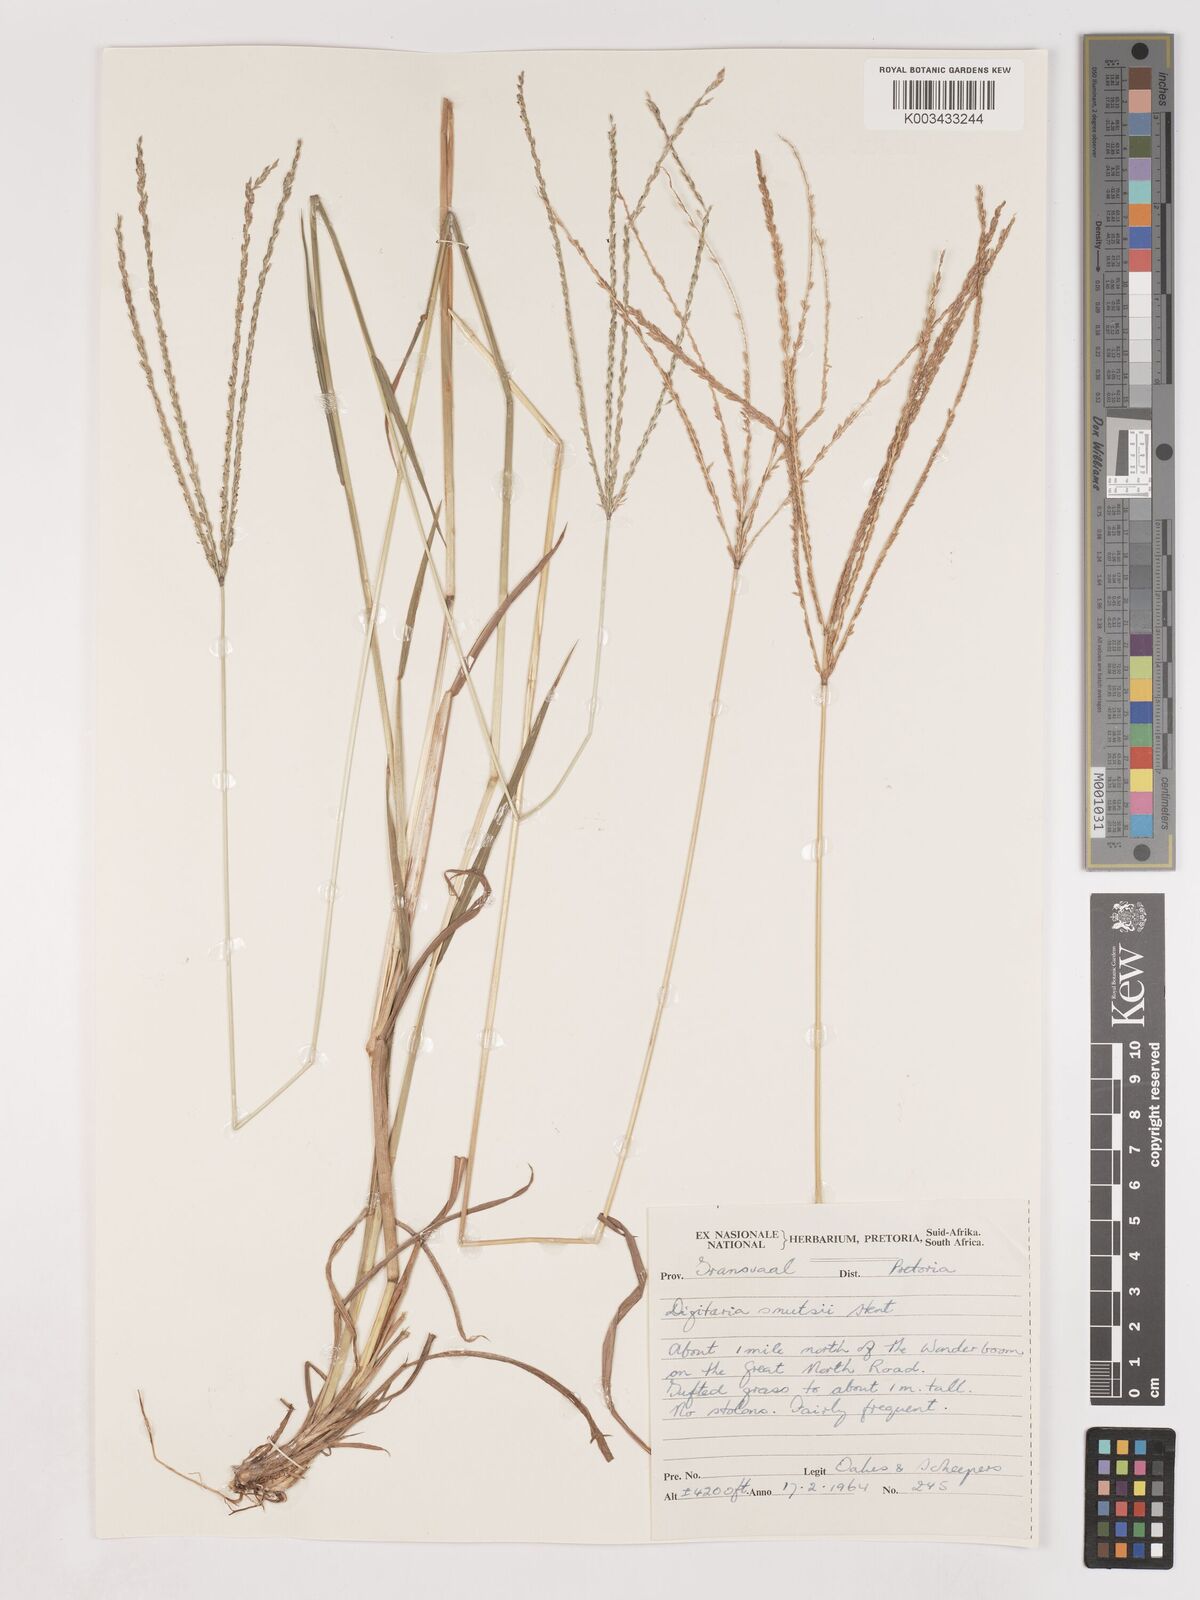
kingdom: Plantae
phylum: Tracheophyta
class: Liliopsida
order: Poales
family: Poaceae
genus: Digitaria
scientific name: Digitaria eriantha
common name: Digitgrass
